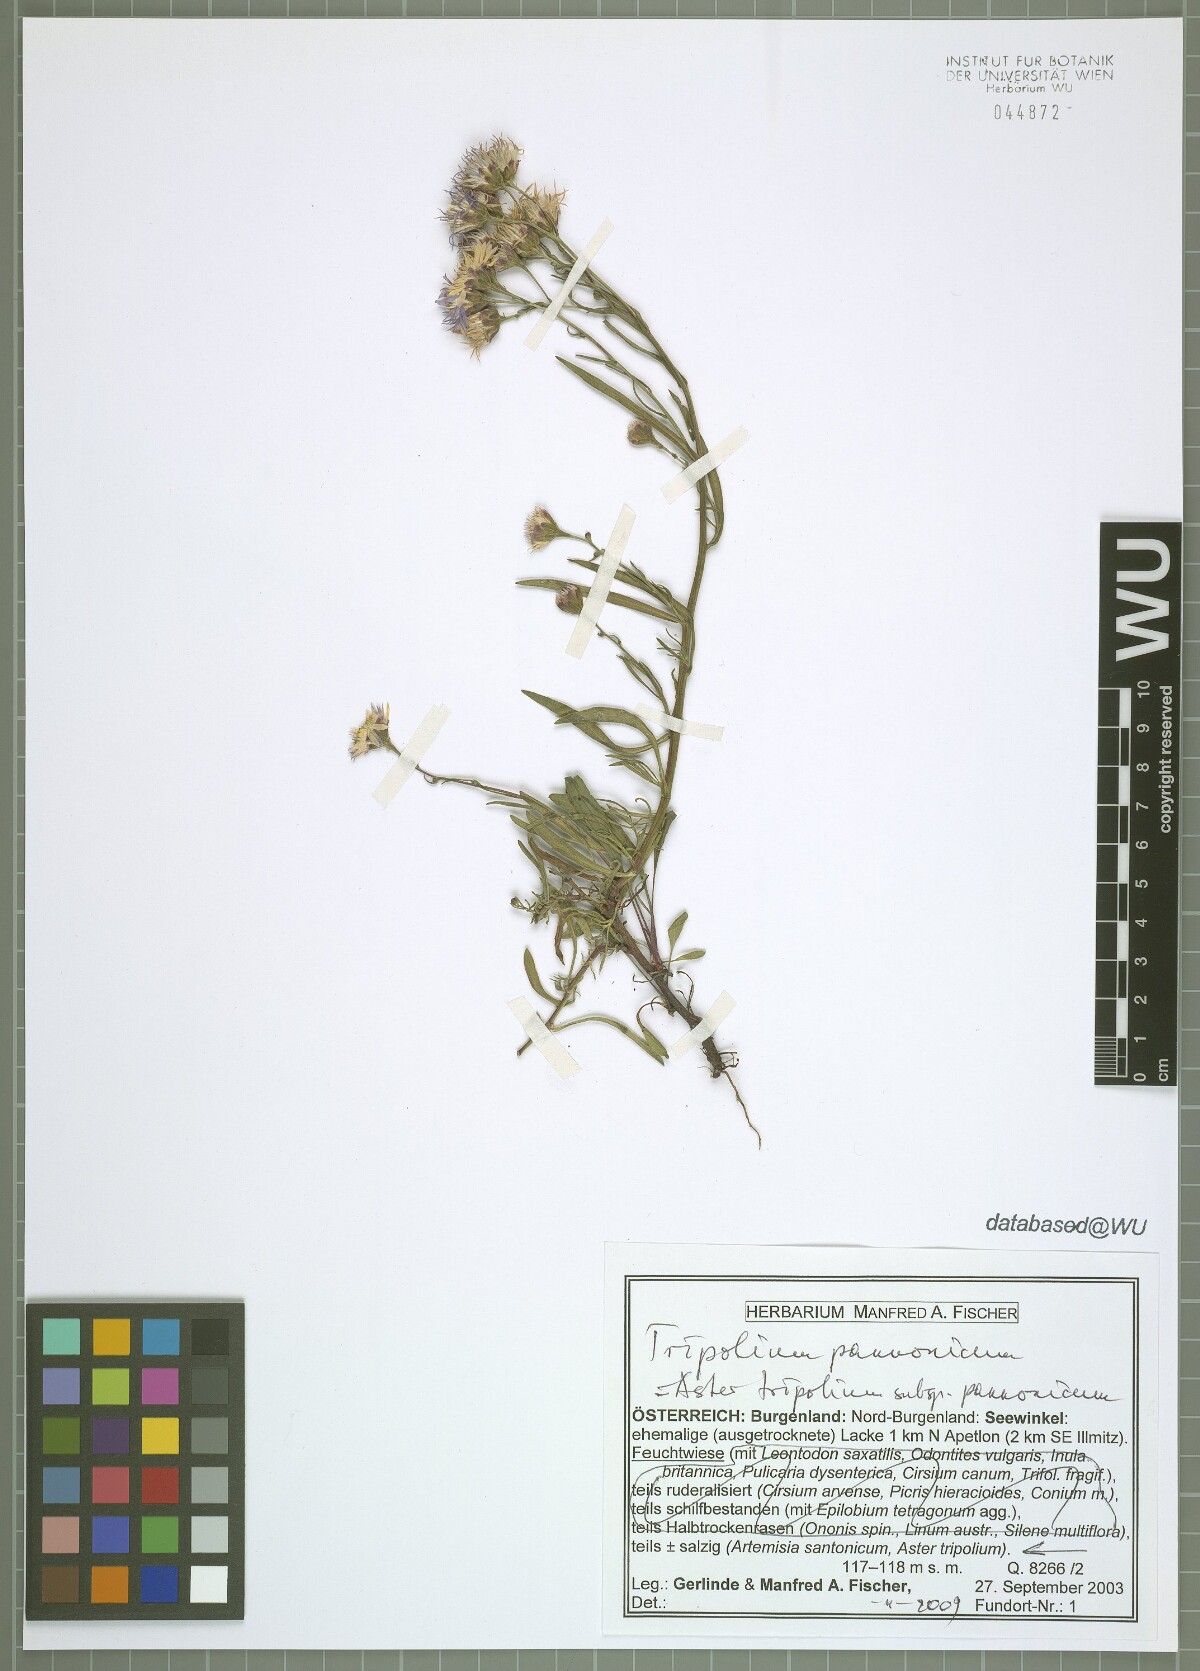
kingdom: Plantae
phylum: Tracheophyta
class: Magnoliopsida
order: Asterales
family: Asteraceae
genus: Tripolium
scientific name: Tripolium pannonicum
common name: Sea aster
